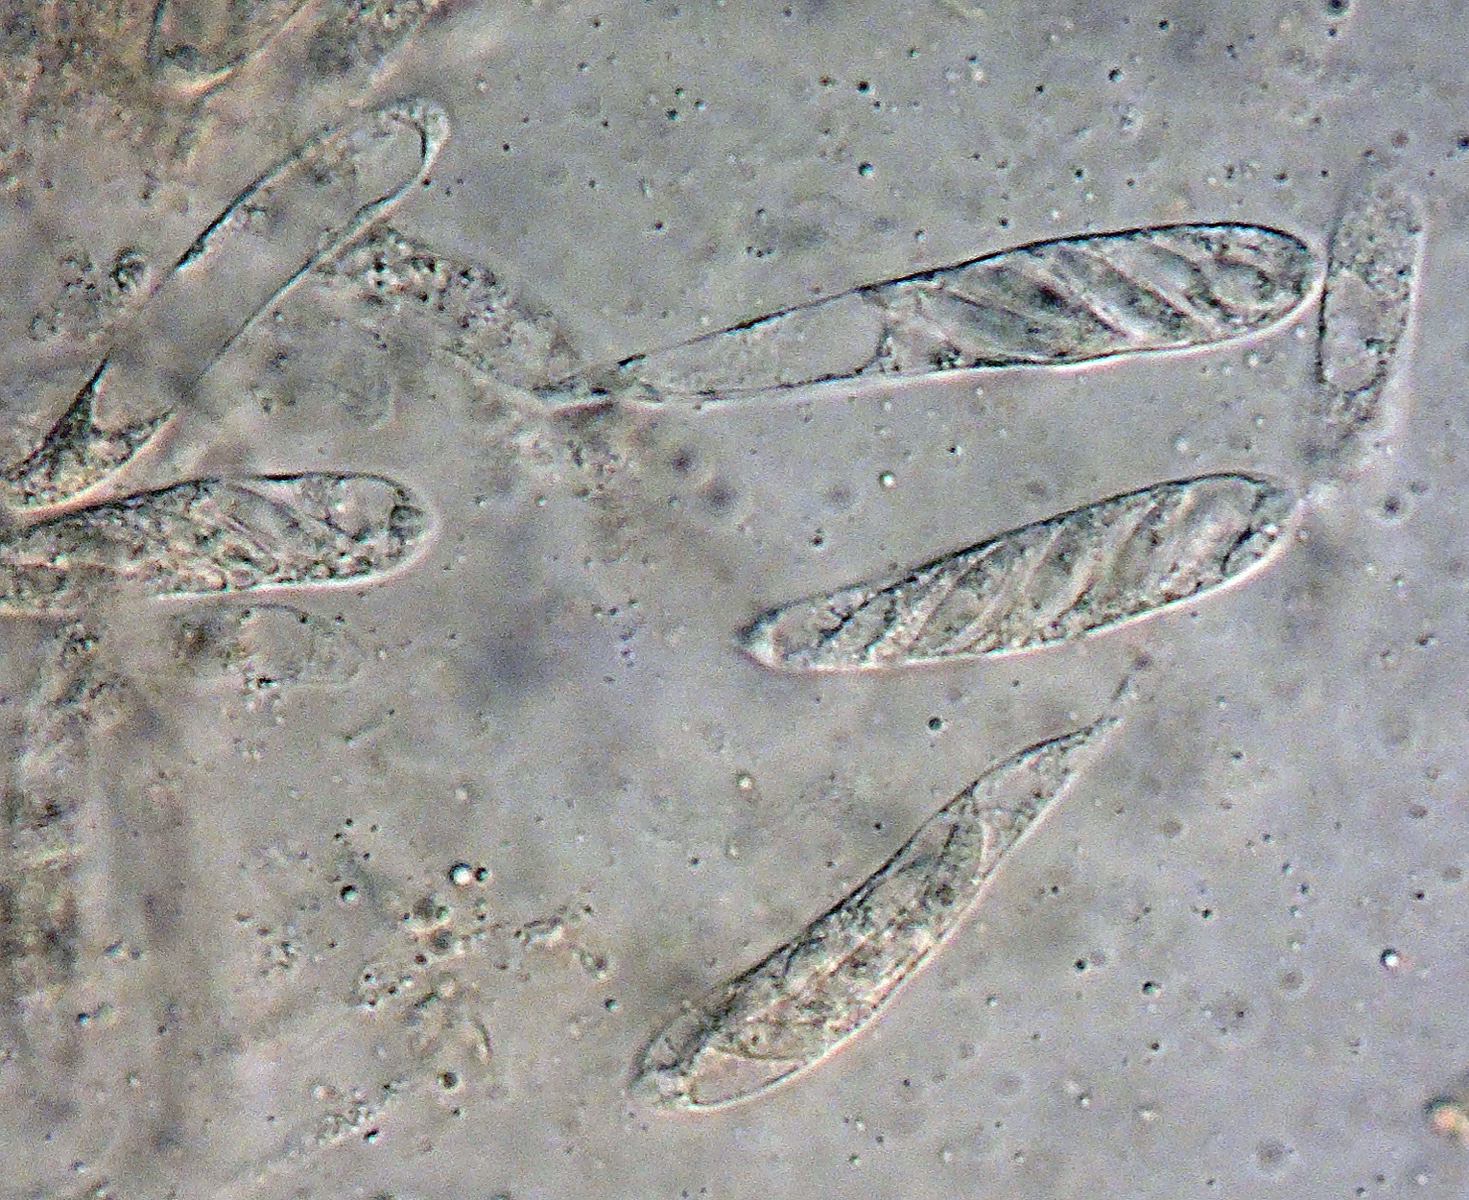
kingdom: Fungi
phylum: Ascomycota
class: Sordariomycetes
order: Diaporthales
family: Gnomoniaceae
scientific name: Gnomoniaceae
